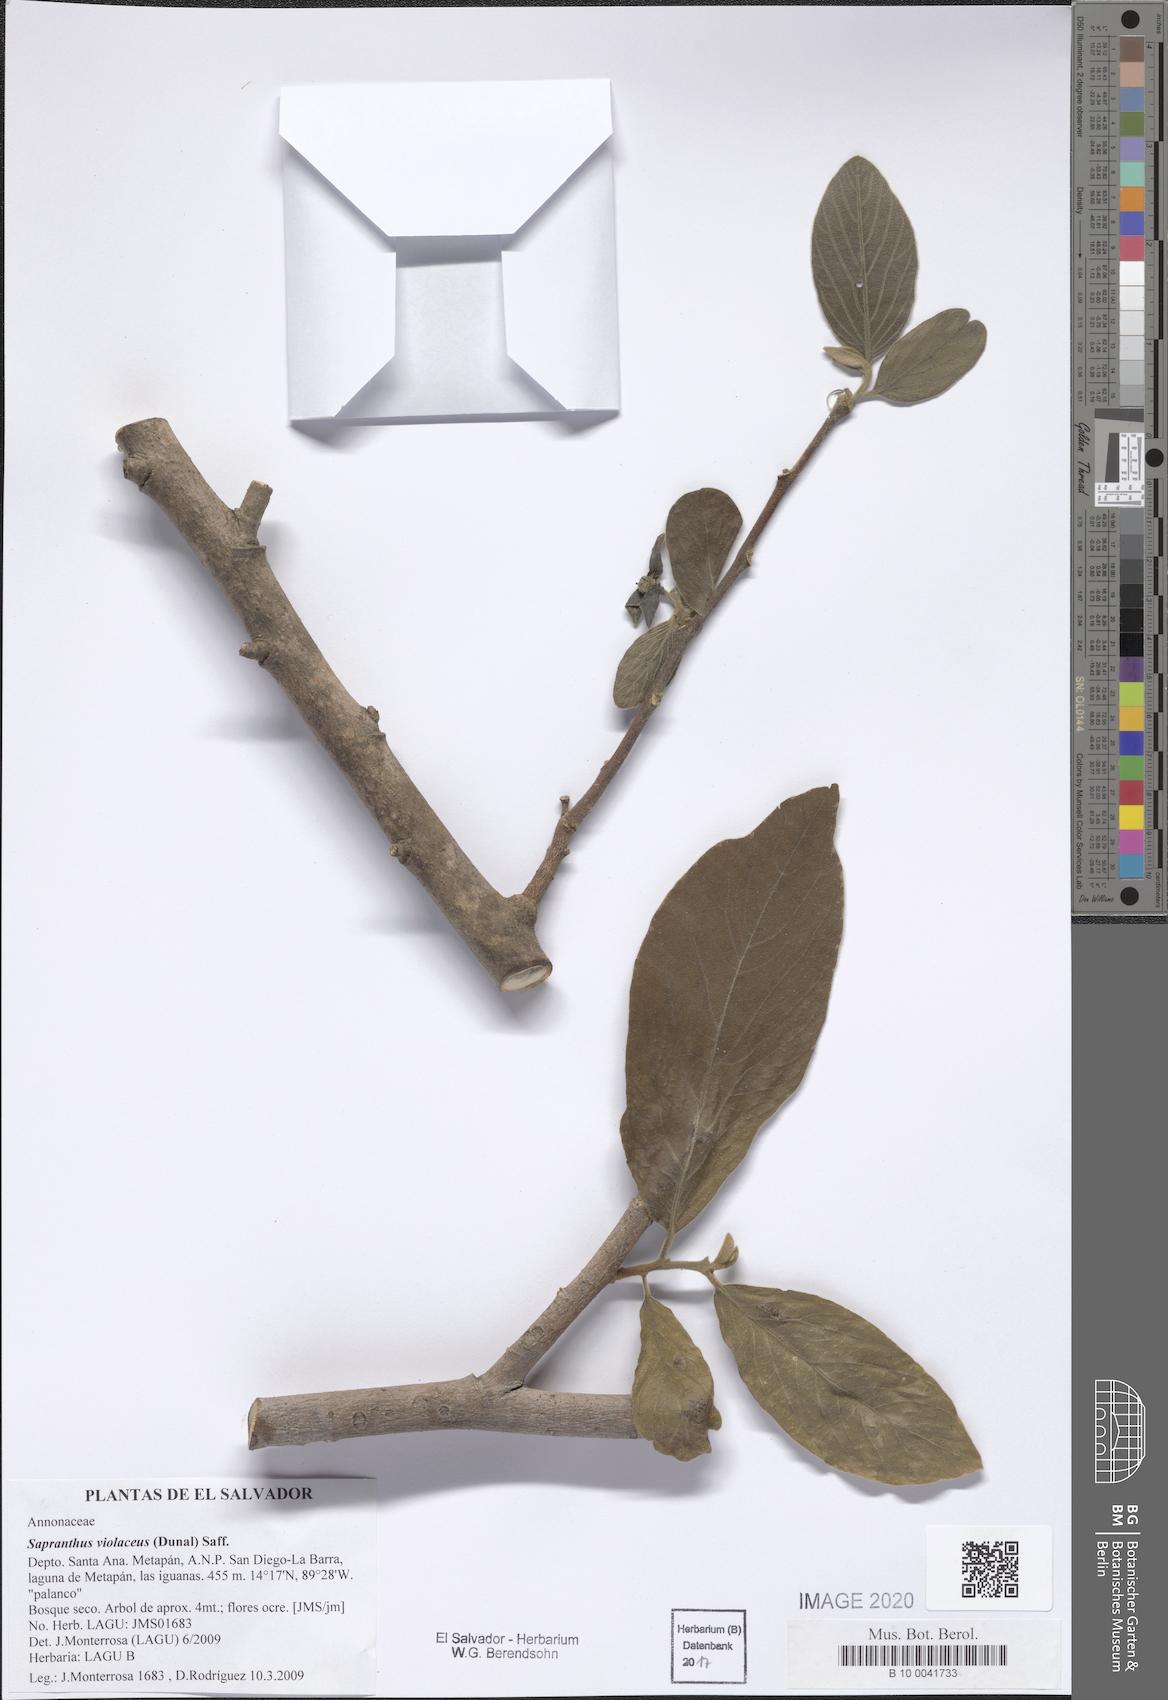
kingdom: Plantae
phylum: Tracheophyta
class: Magnoliopsida
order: Caryophyllales
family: Nyctaginaceae
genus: Guapira
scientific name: Guapira witsbergeri
